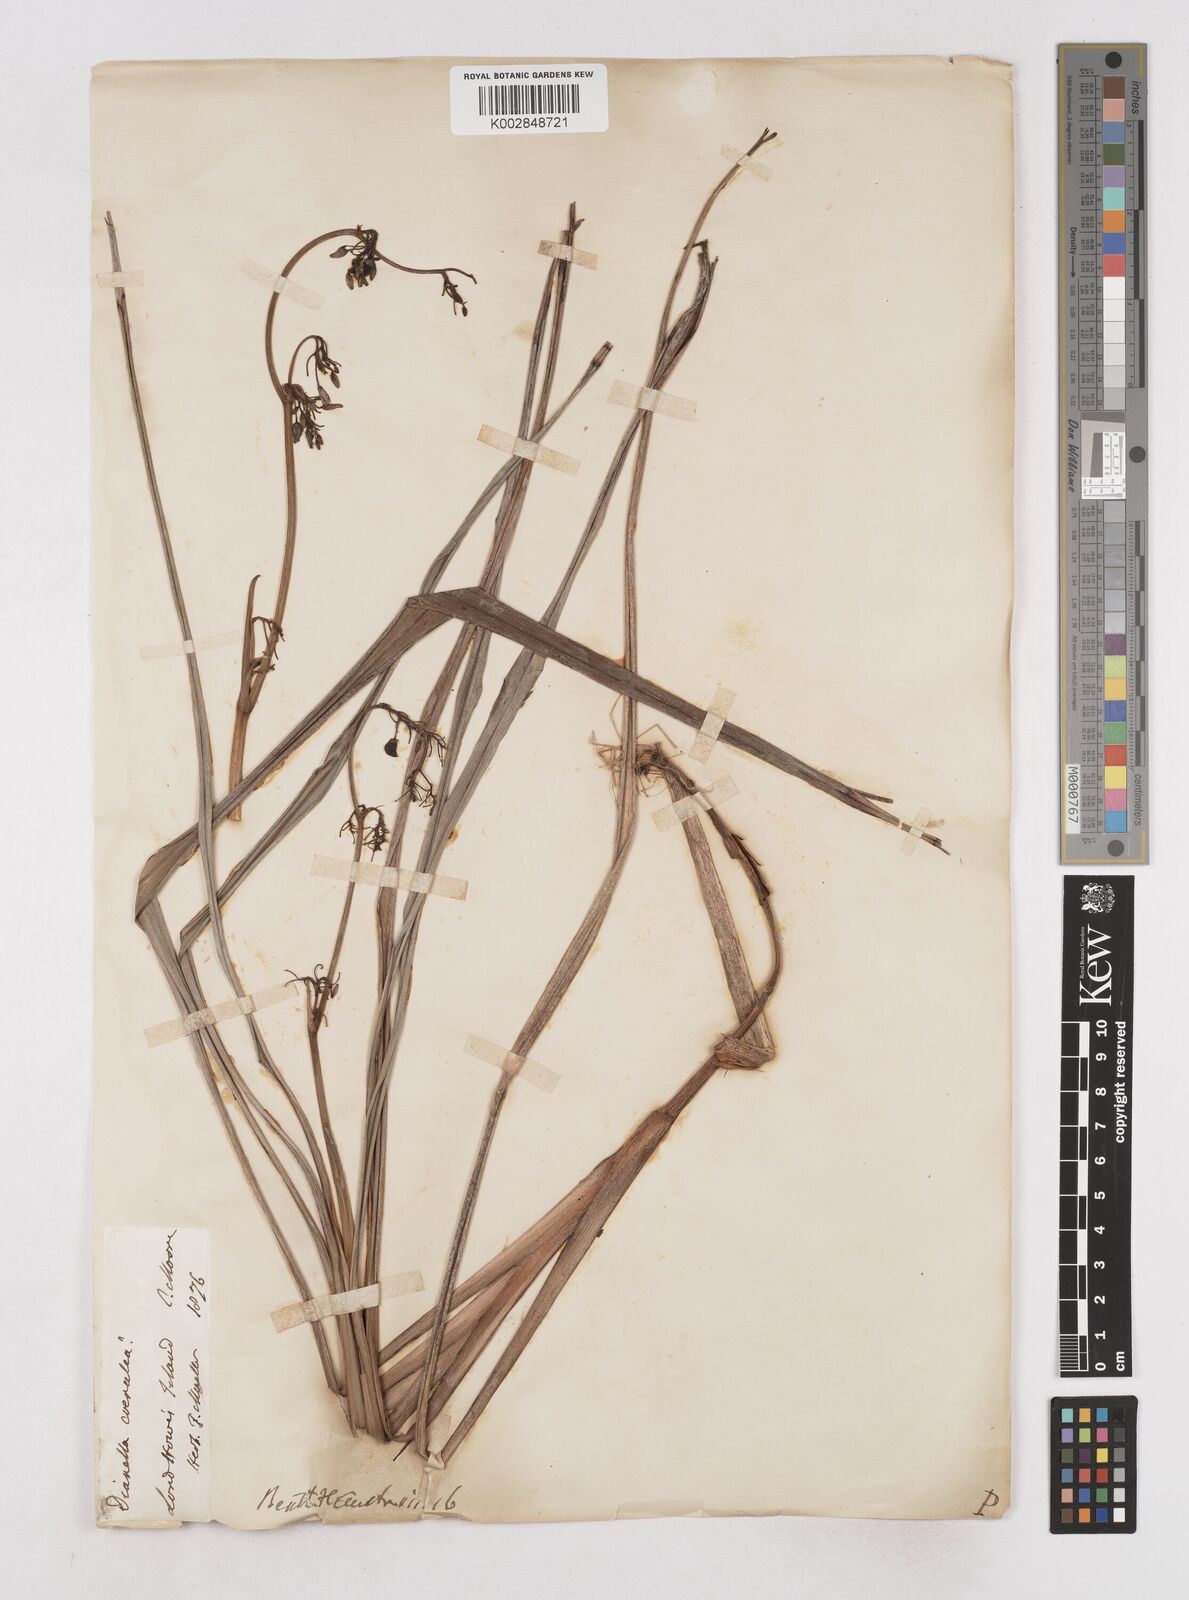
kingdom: Plantae
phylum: Tracheophyta
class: Liliopsida
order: Asparagales
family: Asphodelaceae
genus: Dianella
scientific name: Dianella
